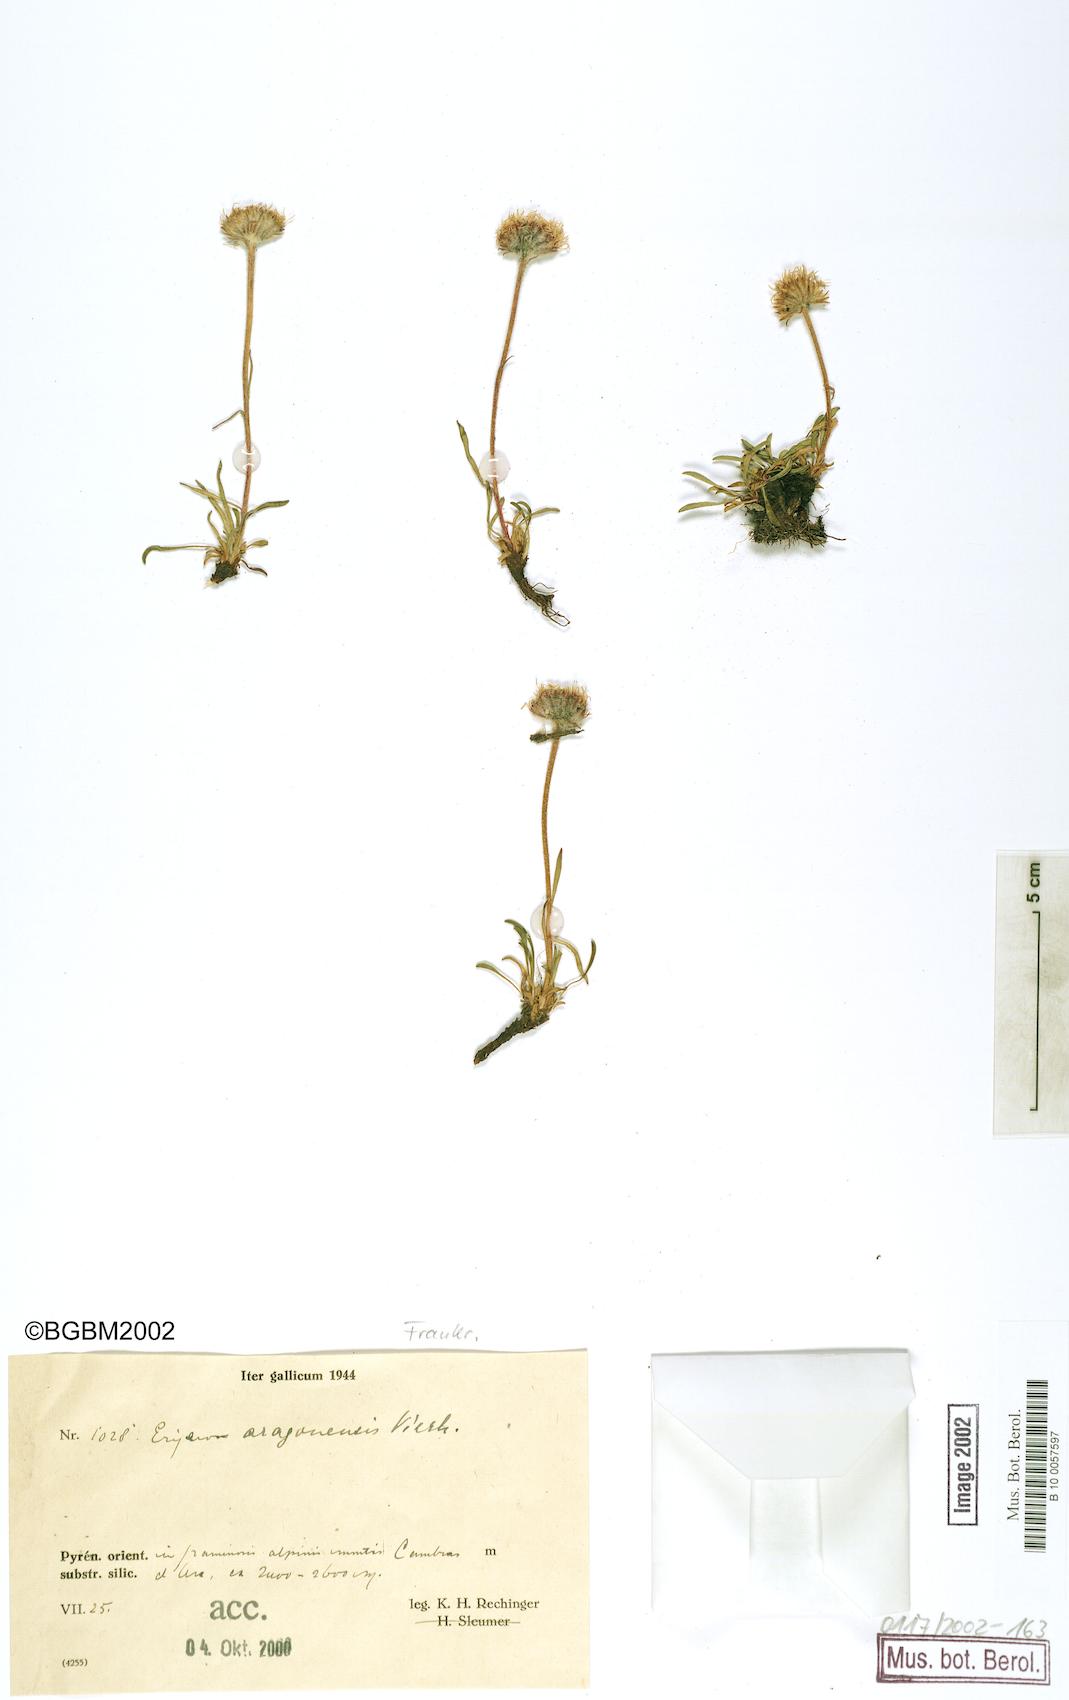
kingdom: Plantae
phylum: Tracheophyta
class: Magnoliopsida
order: Asterales
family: Asteraceae
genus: Erigeron
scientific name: Erigeron aragonensis
